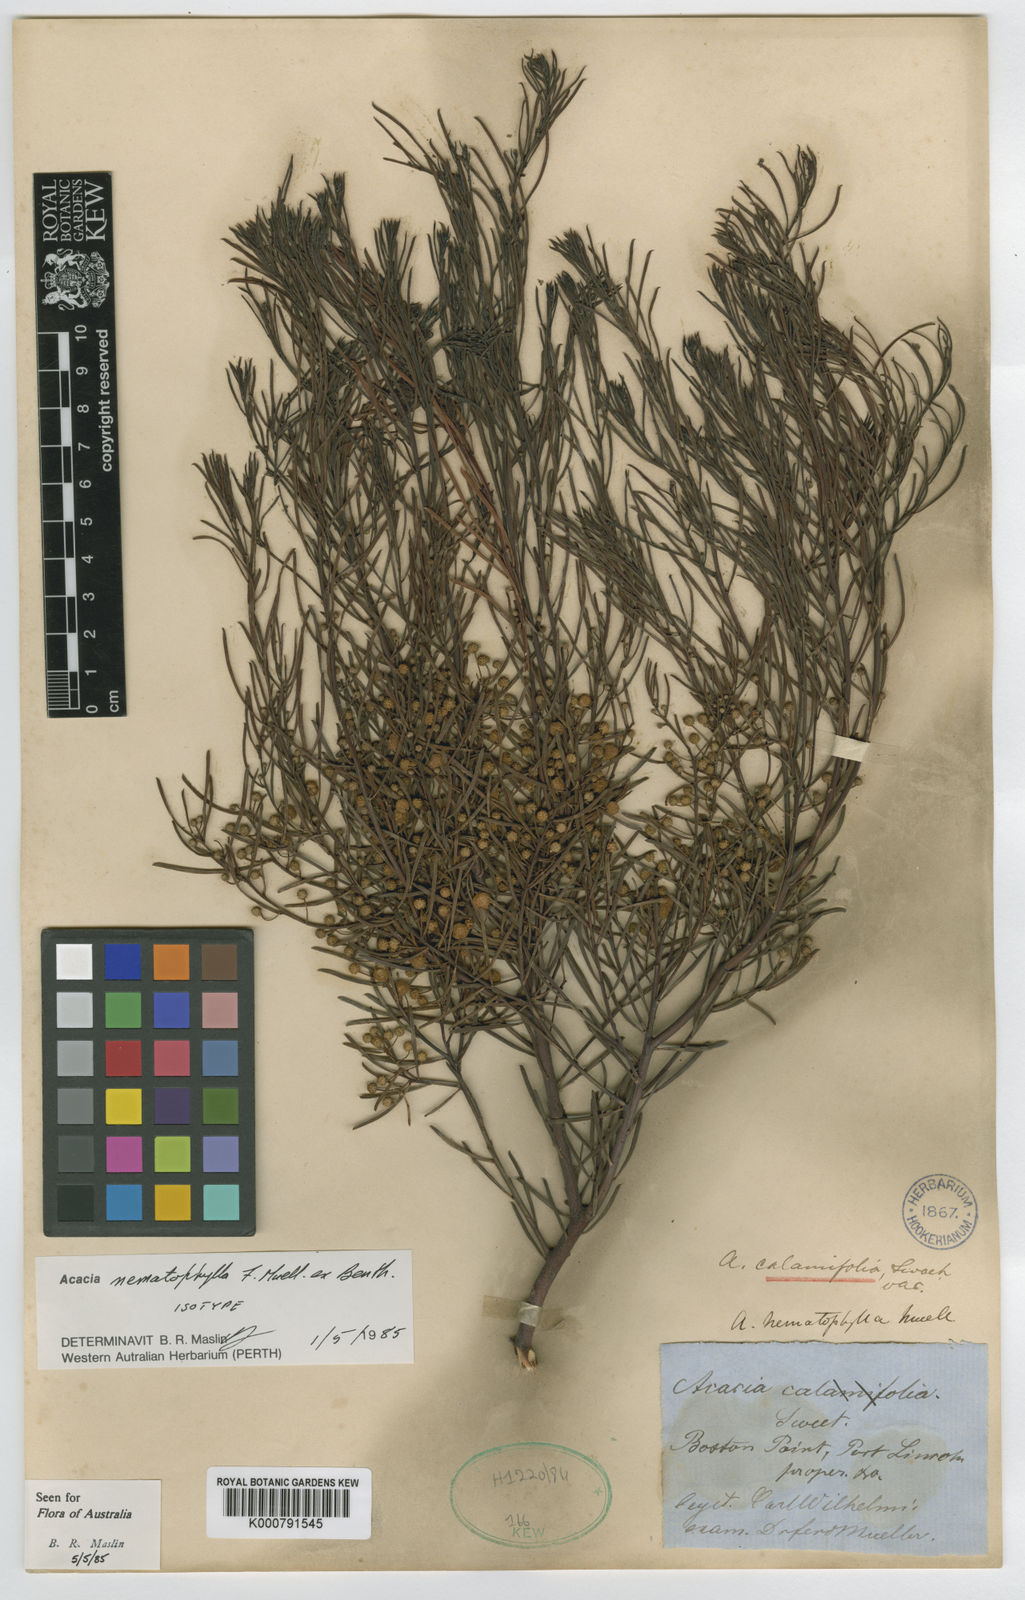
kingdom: Plantae
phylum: Tracheophyta
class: Magnoliopsida
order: Fabales
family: Fabaceae
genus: Acacia
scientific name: Acacia calamifolia
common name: Broom wattle
